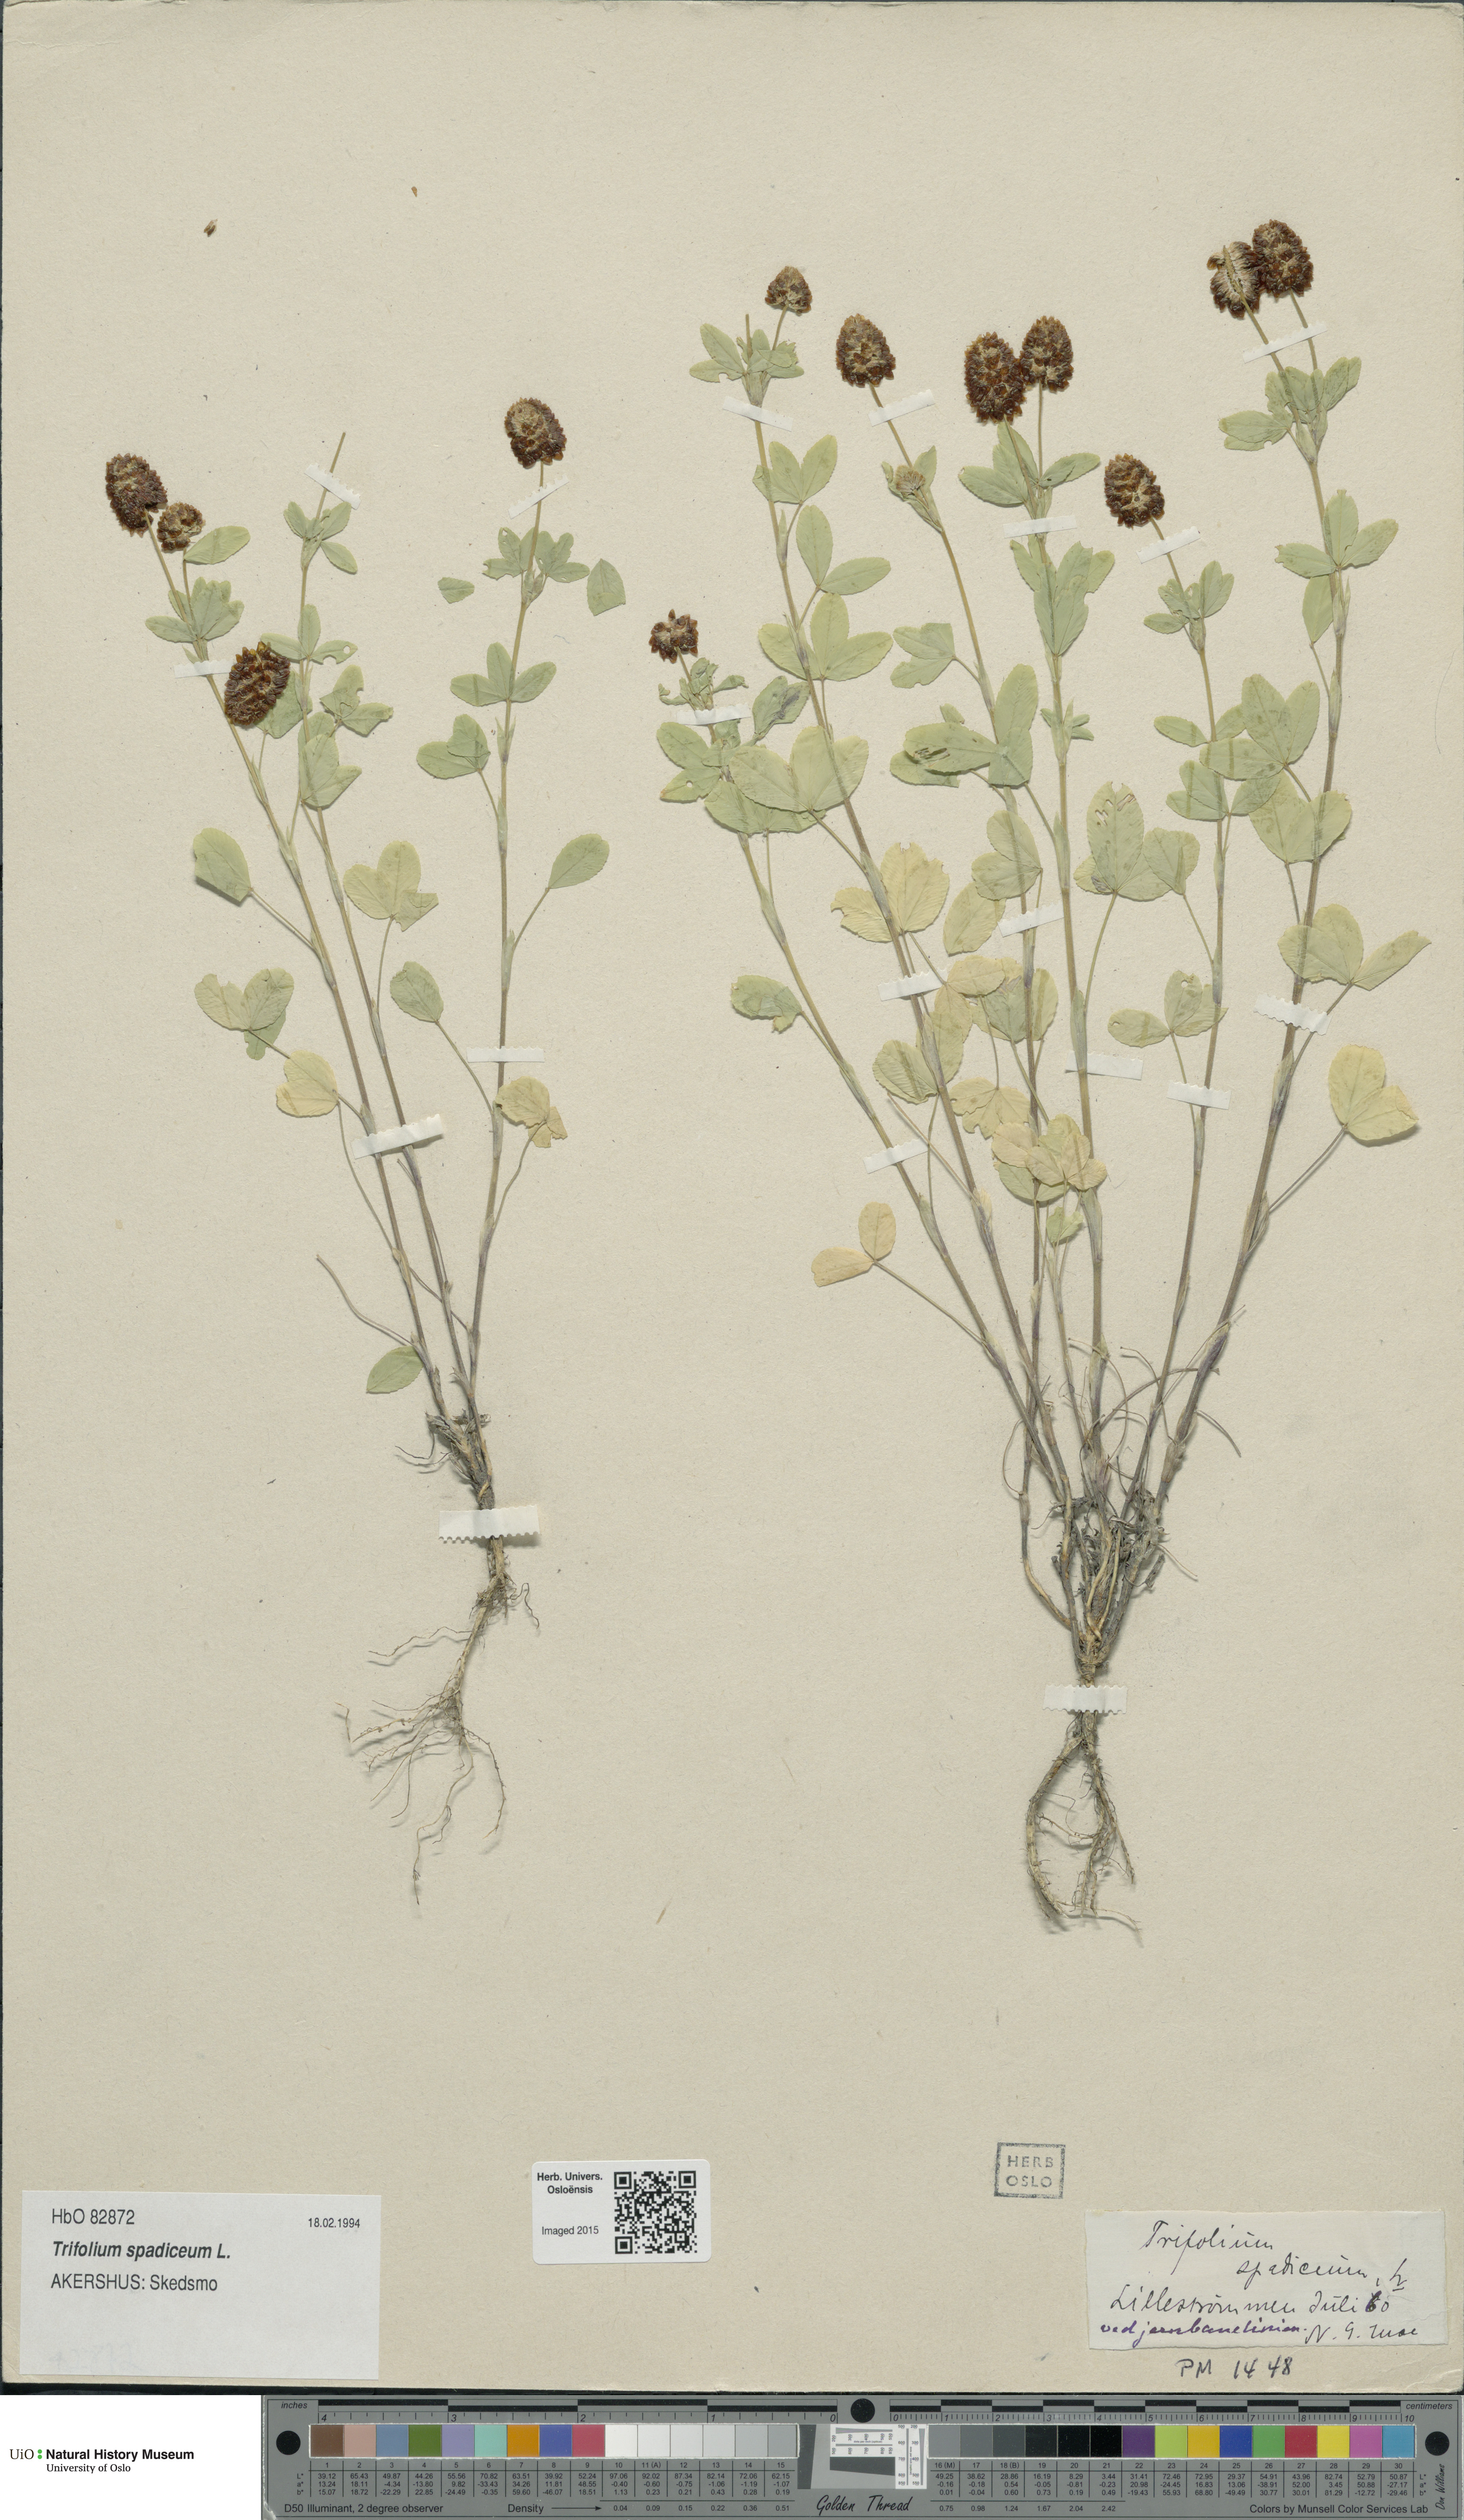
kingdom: Plantae
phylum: Tracheophyta
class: Magnoliopsida
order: Fabales
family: Fabaceae
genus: Trifolium
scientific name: Trifolium spadiceum
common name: Brown moor clover
